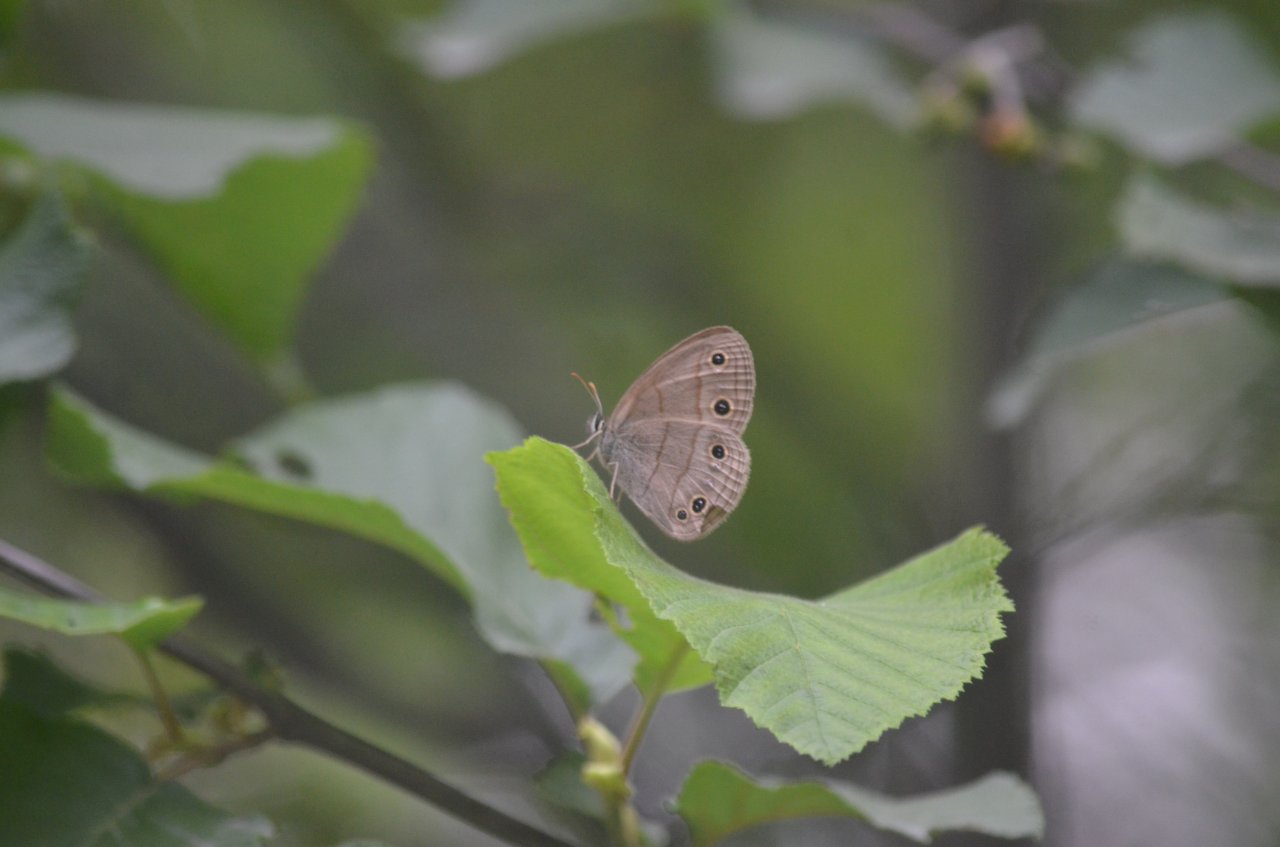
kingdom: Animalia
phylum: Arthropoda
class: Insecta
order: Lepidoptera
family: Nymphalidae
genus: Euptychia
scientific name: Euptychia cymela
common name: Little Wood Satyr
